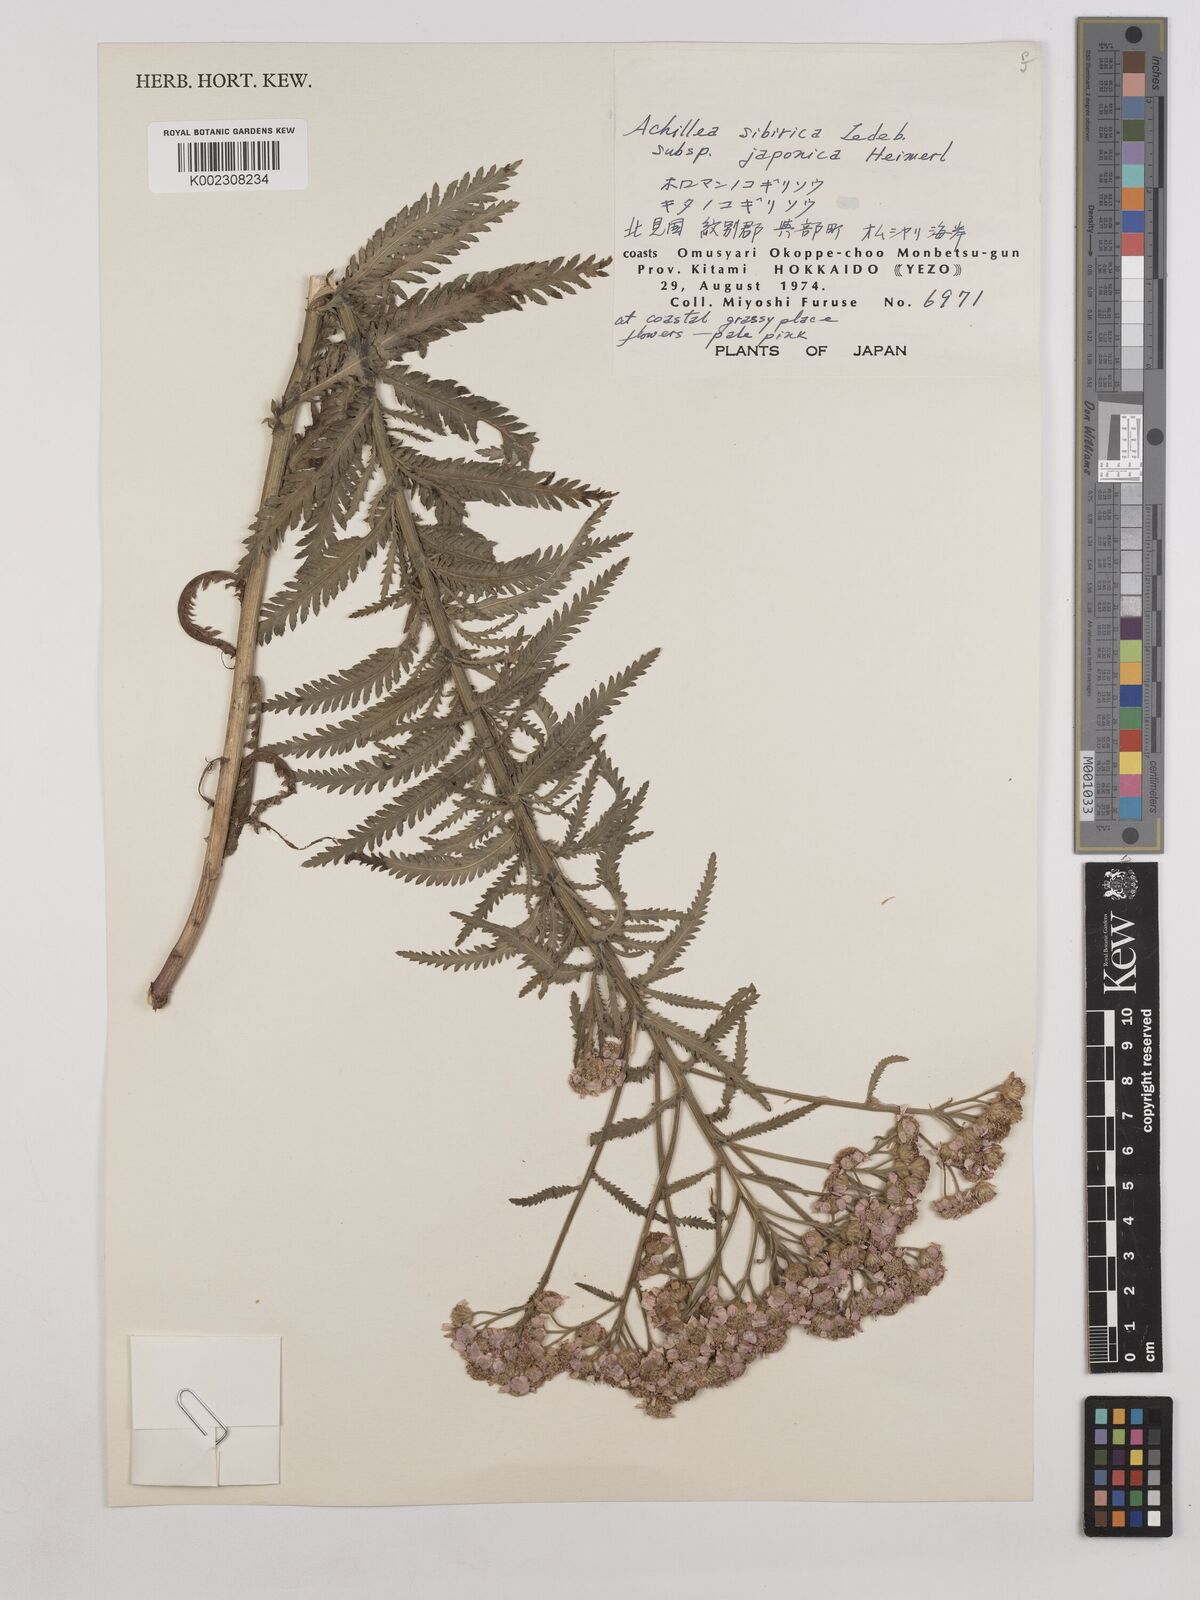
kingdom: Plantae
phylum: Tracheophyta
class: Magnoliopsida
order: Asterales
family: Asteraceae
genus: Achillea
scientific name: Achillea alpina
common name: Siberian yarrow
